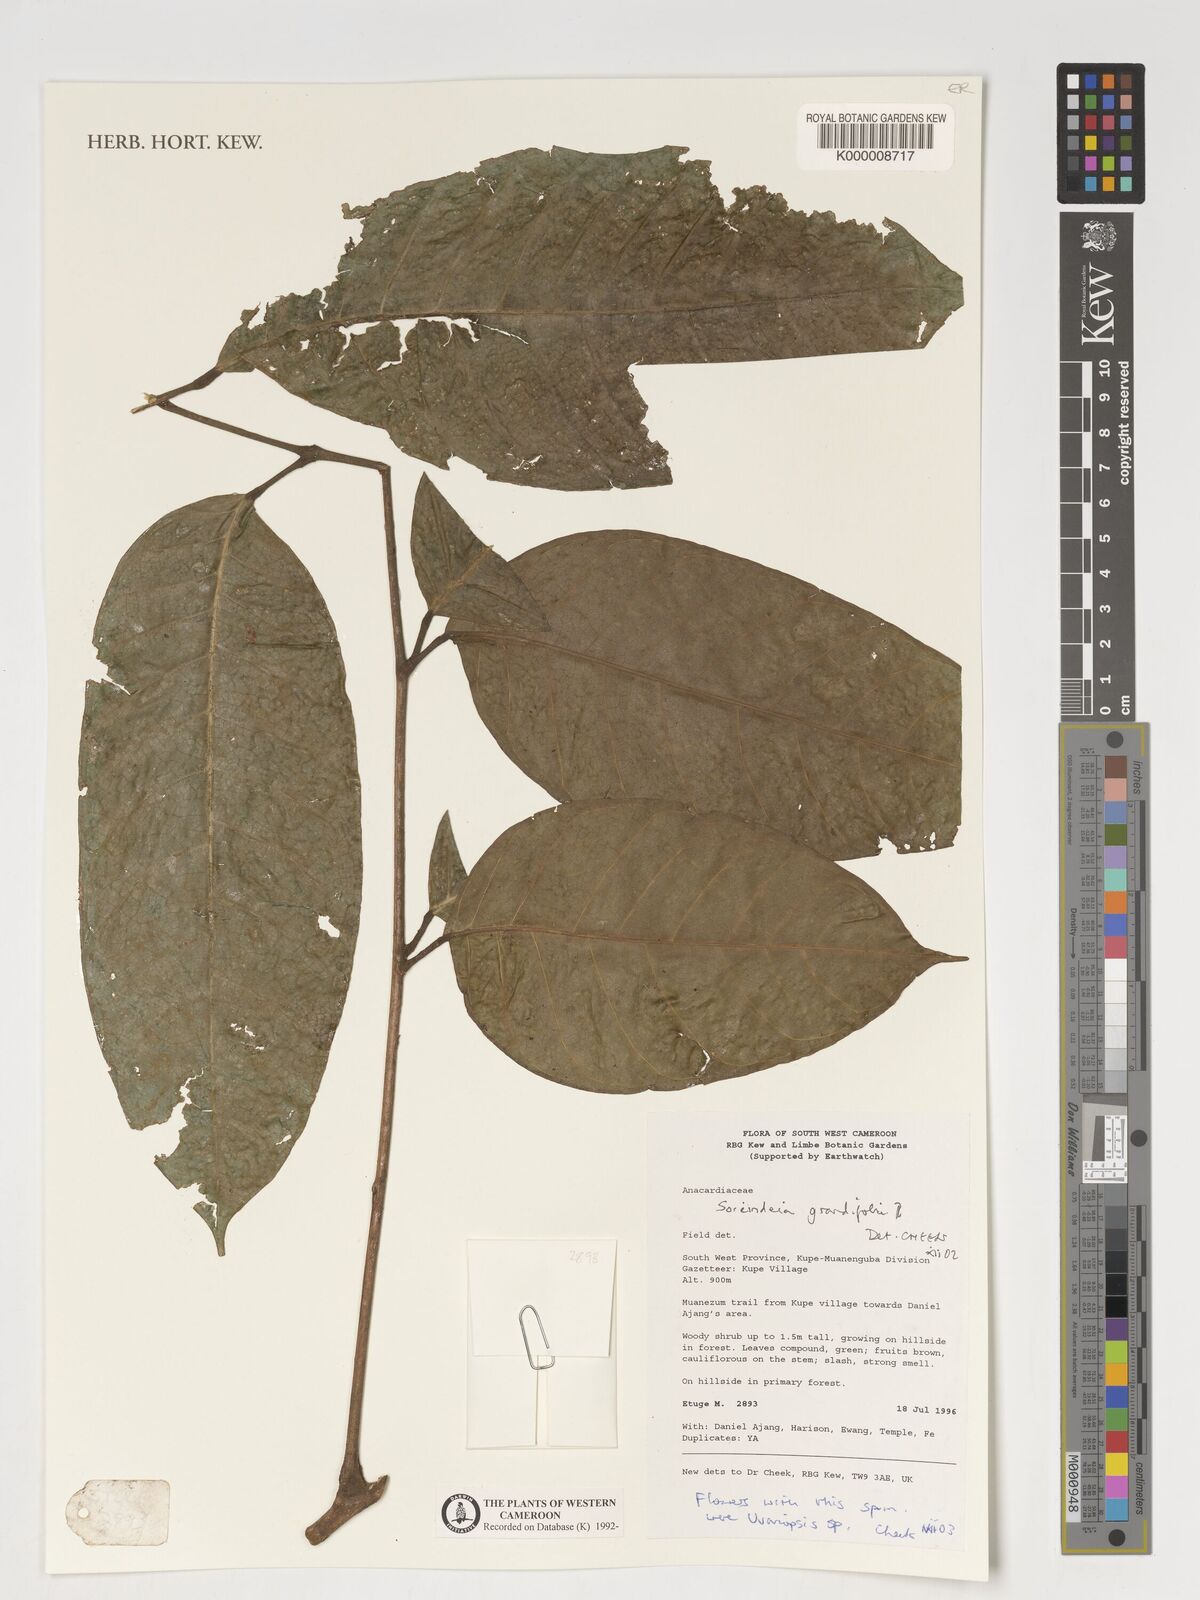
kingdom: Plantae
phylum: Tracheophyta
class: Magnoliopsida
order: Sapindales
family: Anacardiaceae
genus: Sorindeia
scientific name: Sorindeia grandifolia
